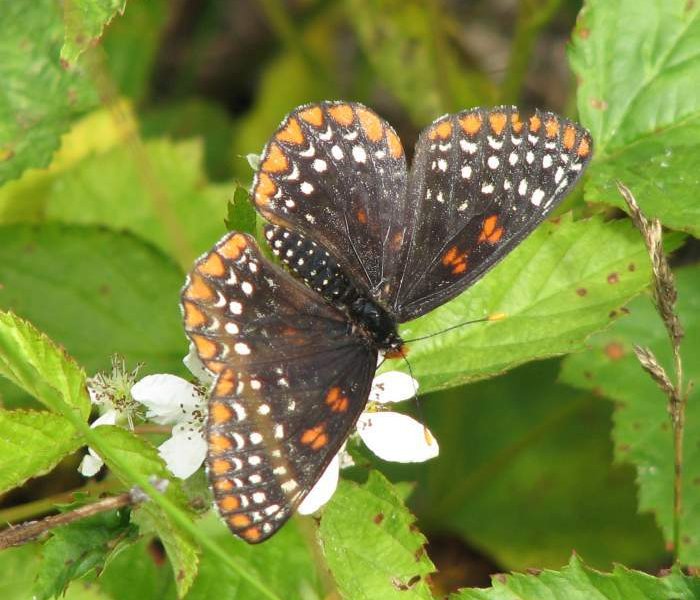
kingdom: Animalia
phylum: Arthropoda
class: Insecta
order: Lepidoptera
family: Nymphalidae
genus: Euphydryas
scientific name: Euphydryas phaeton
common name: Baltimore Checkerspot
